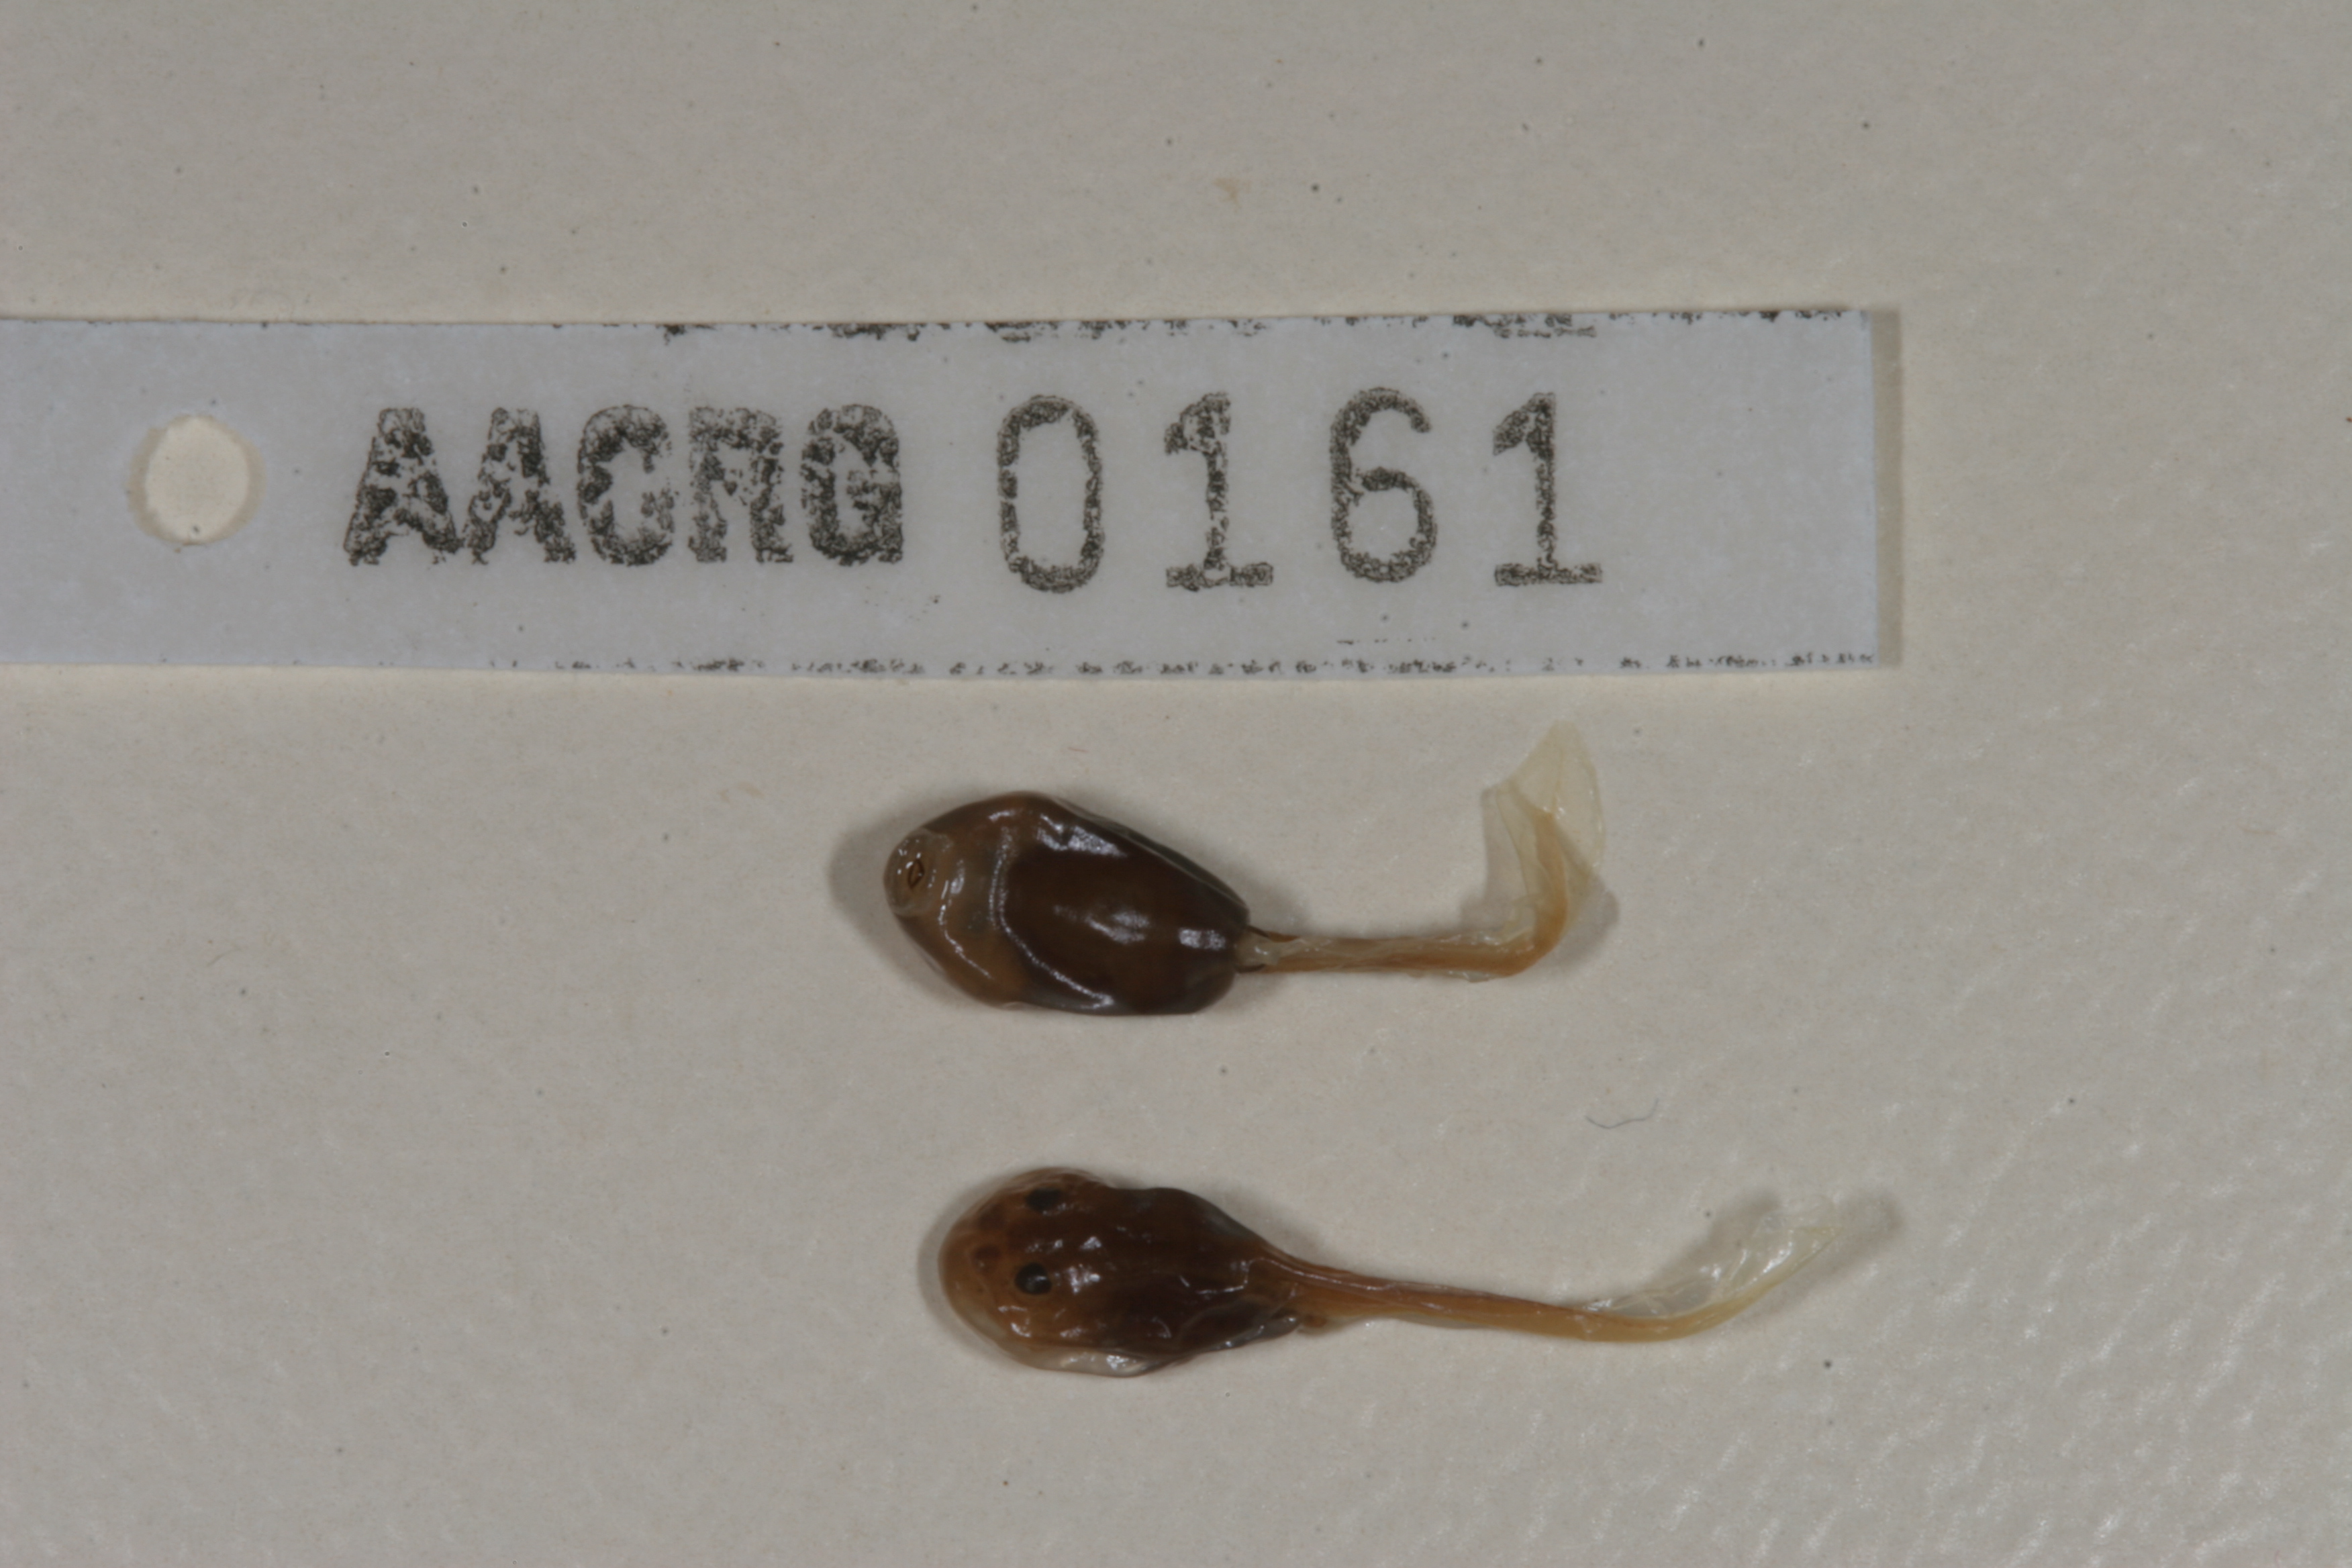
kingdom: Animalia
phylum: Chordata
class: Amphibia
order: Anura
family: Bufonidae
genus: Vandijkophrynus
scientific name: Vandijkophrynus angusticeps
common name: Sand toad
